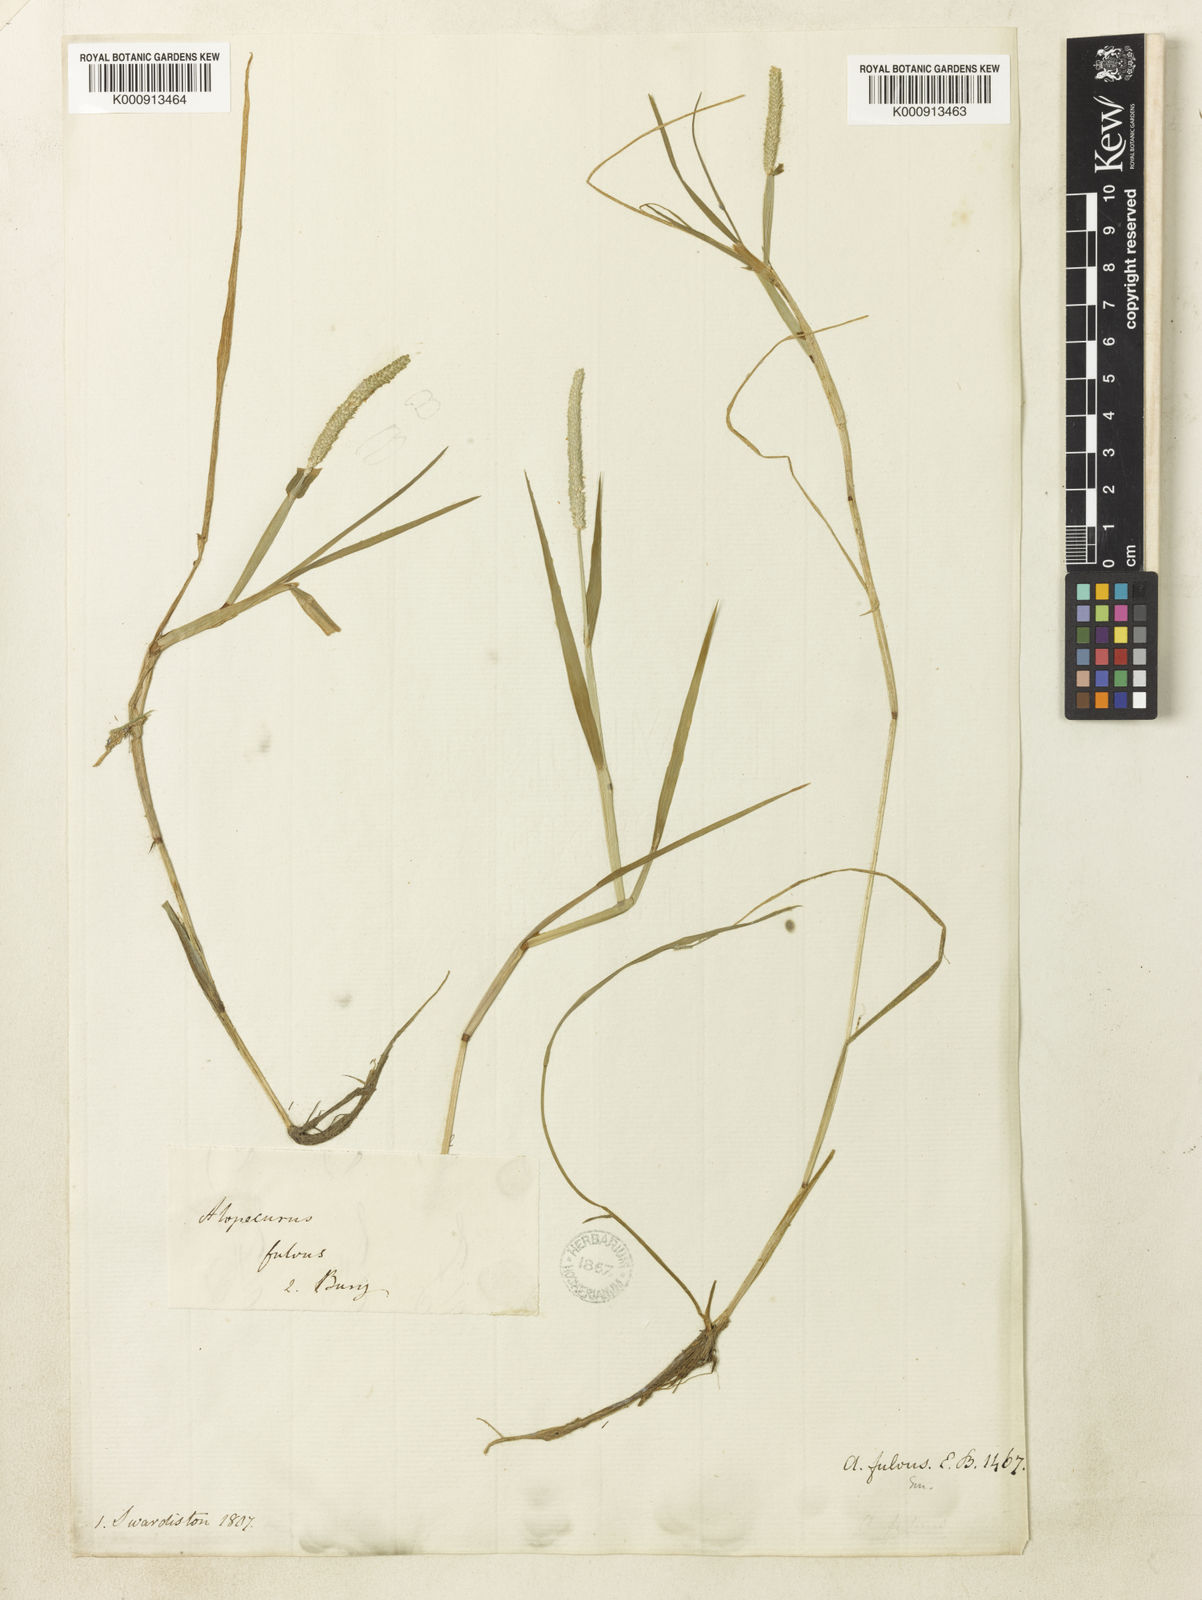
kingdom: Plantae
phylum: Tracheophyta
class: Liliopsida
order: Poales
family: Poaceae
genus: Alopecurus
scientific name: Alopecurus aequalis
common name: Orange foxtail
